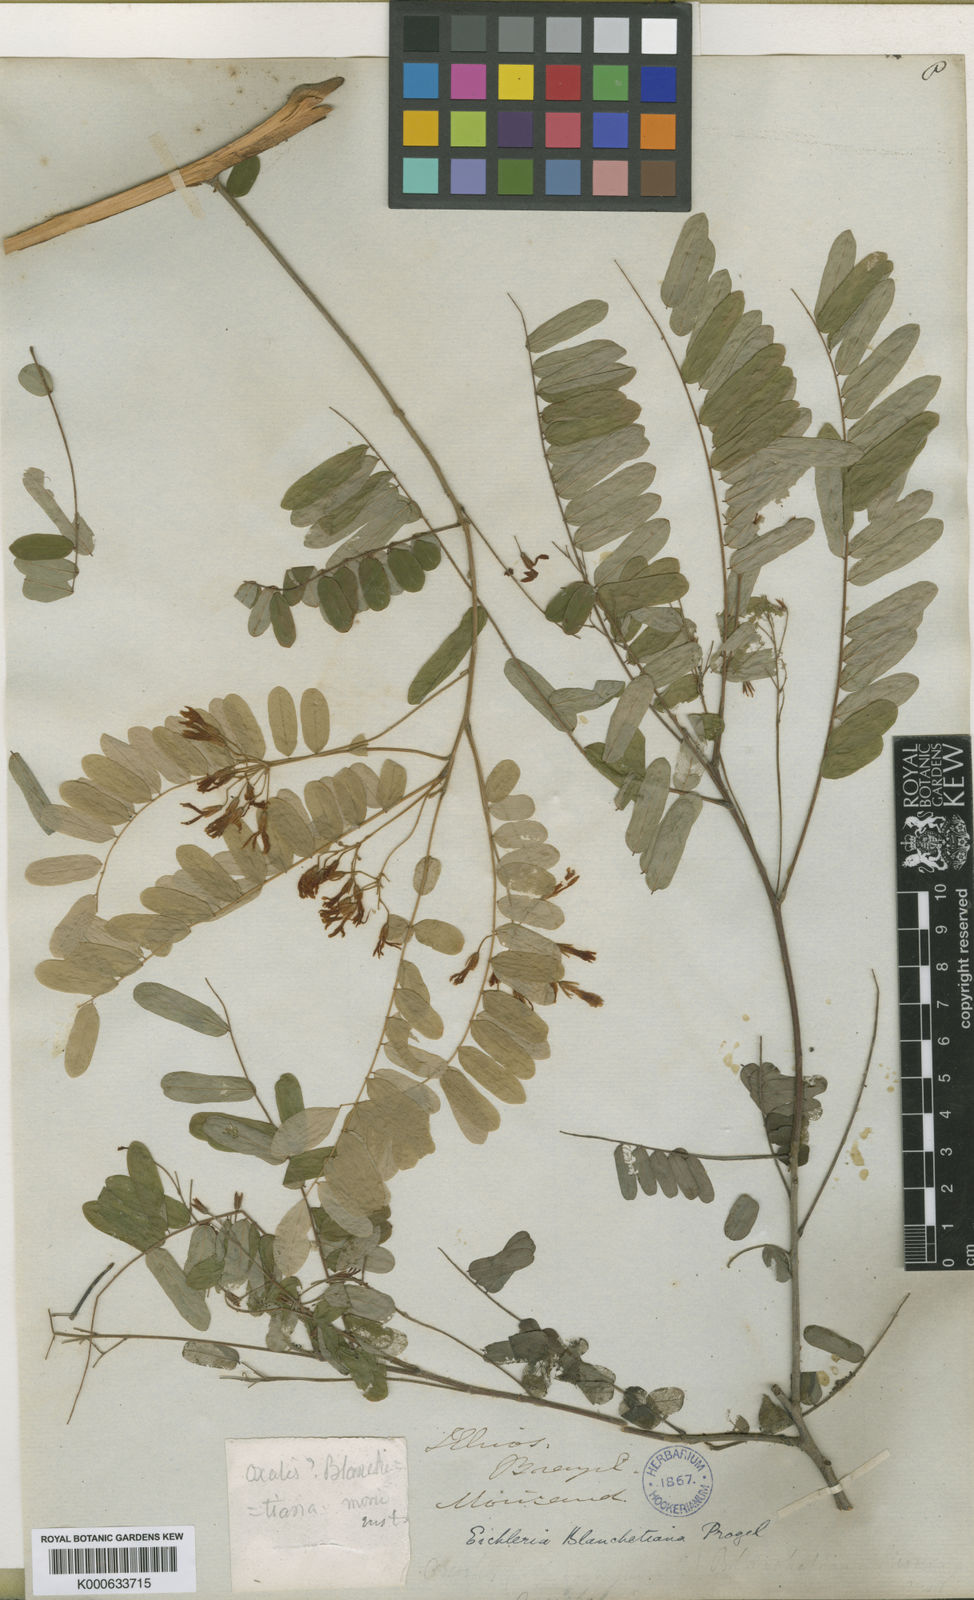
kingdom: Plantae
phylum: Tracheophyta
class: Magnoliopsida
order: Oxalidales
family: Connaraceae
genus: Rourea
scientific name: Rourea blanchetiana
